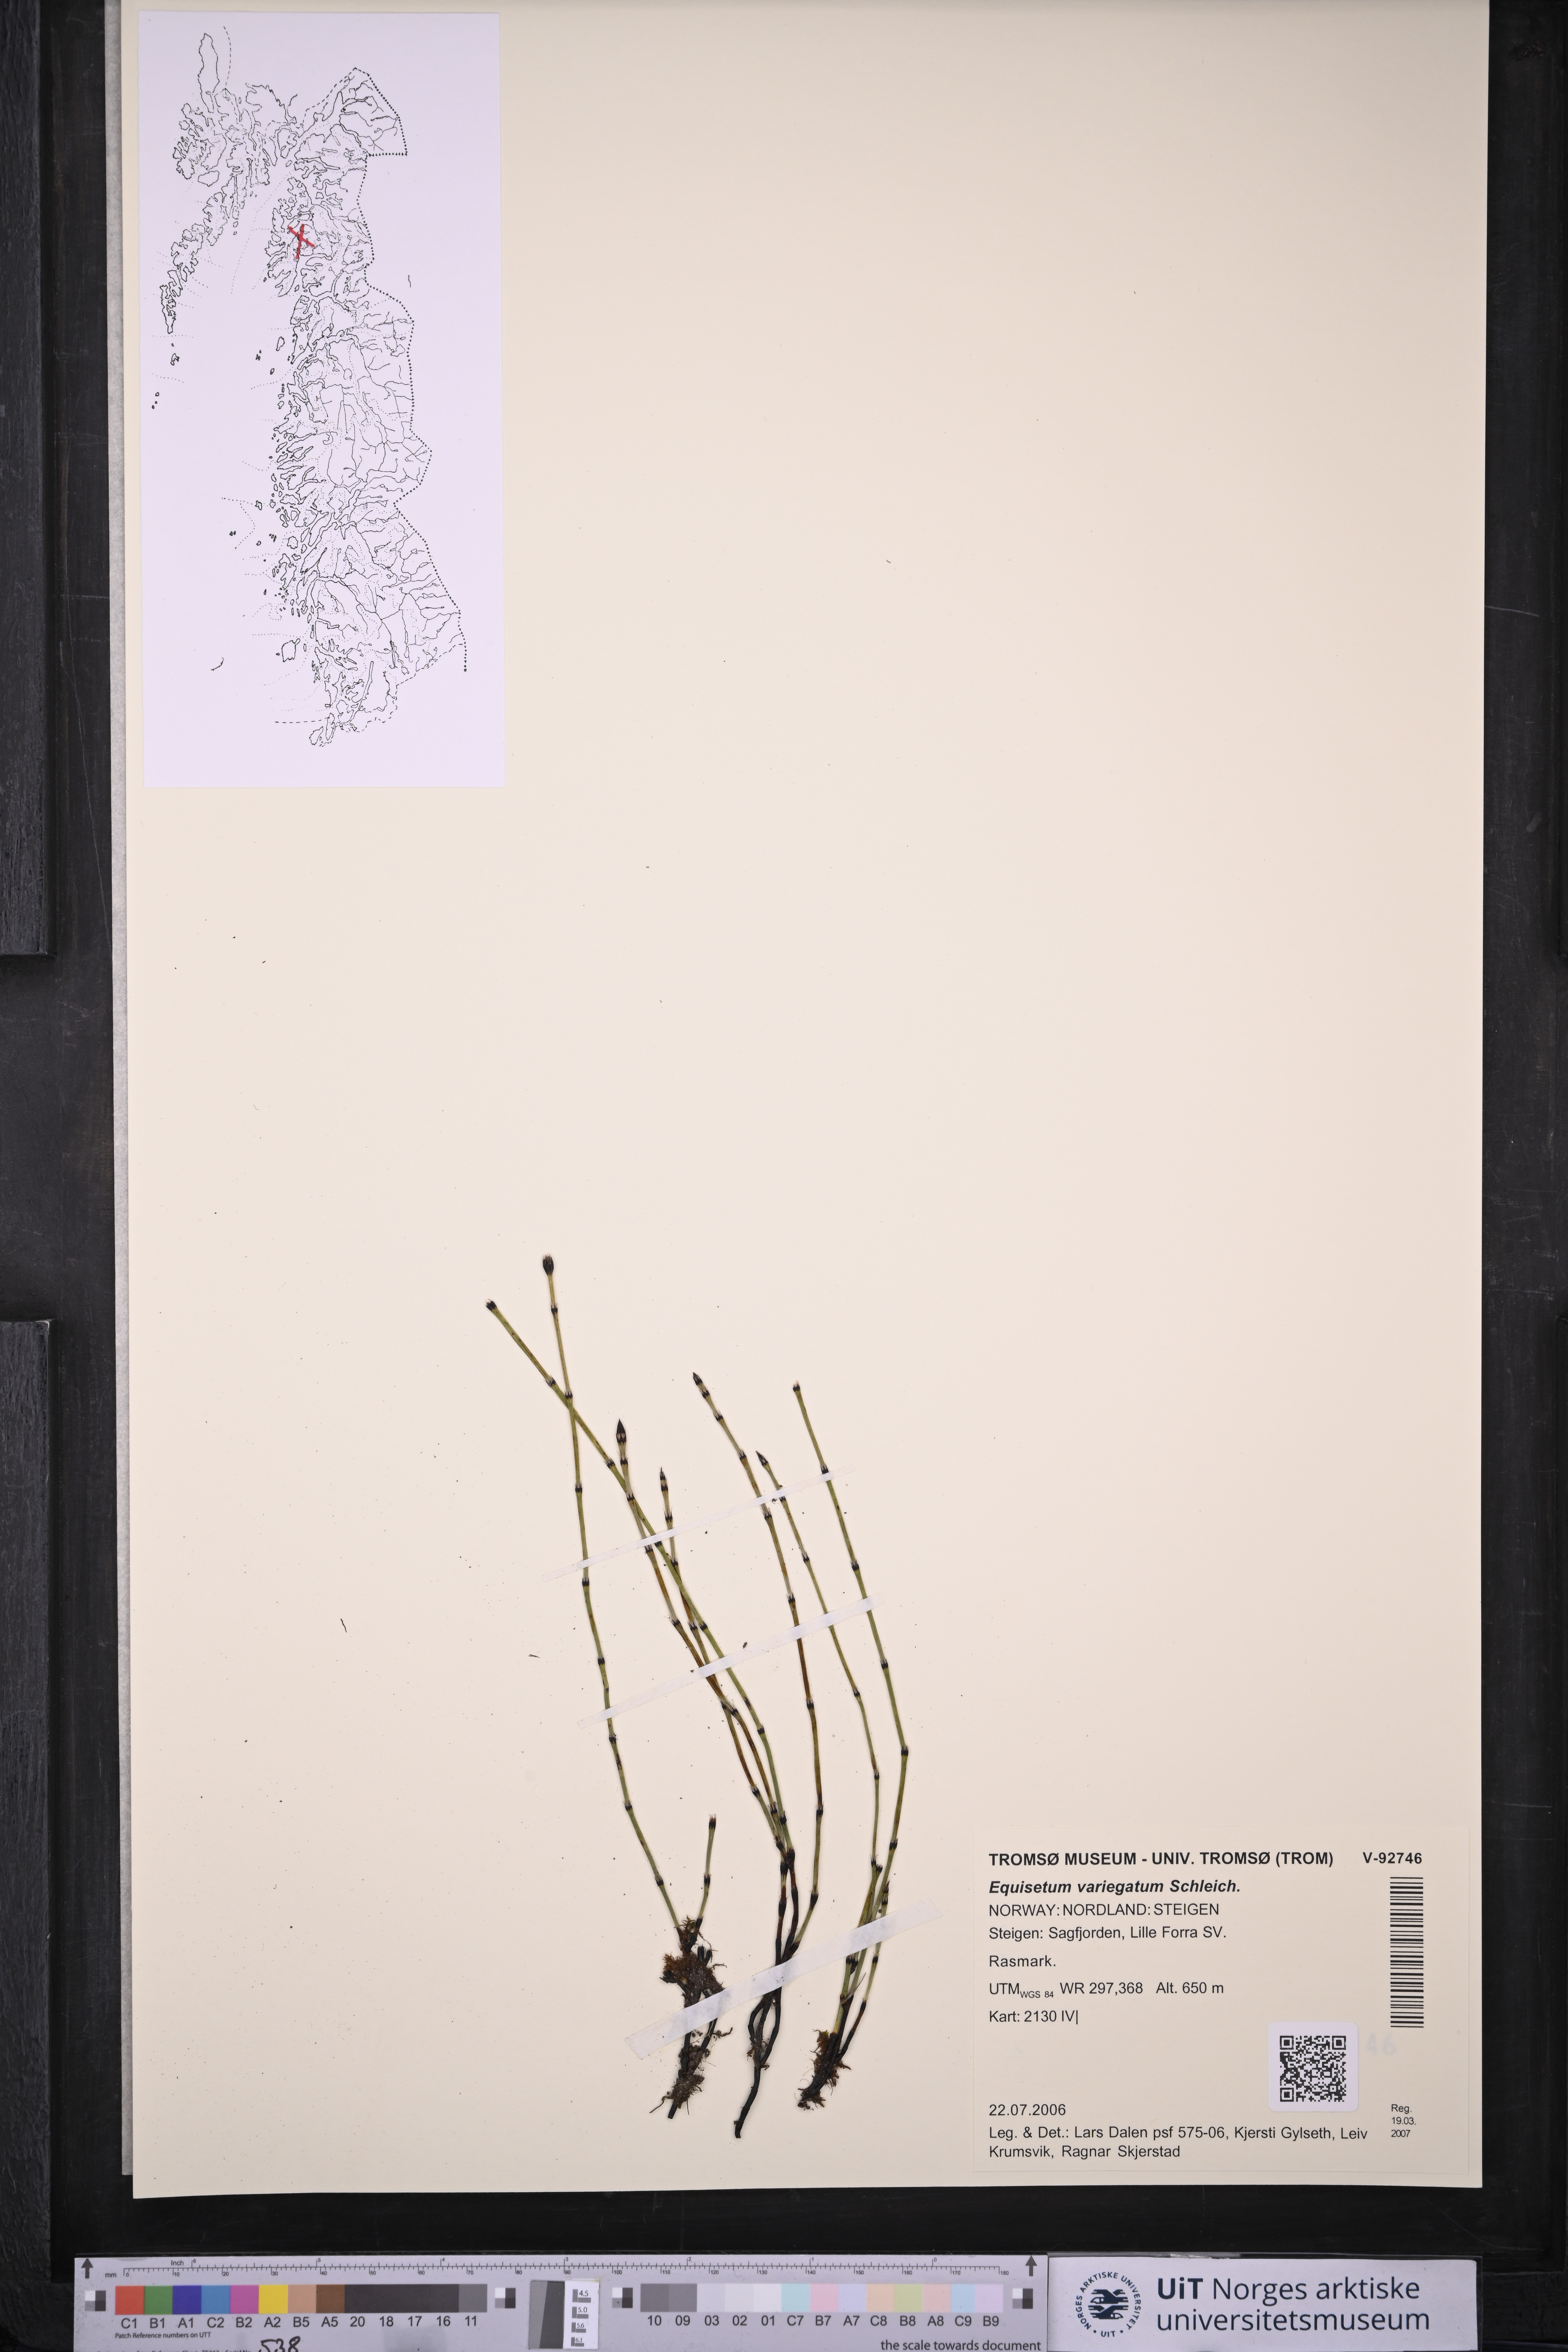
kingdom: Plantae
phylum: Tracheophyta
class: Polypodiopsida
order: Equisetales
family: Equisetaceae
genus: Equisetum
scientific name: Equisetum variegatum
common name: Variegated horsetail
